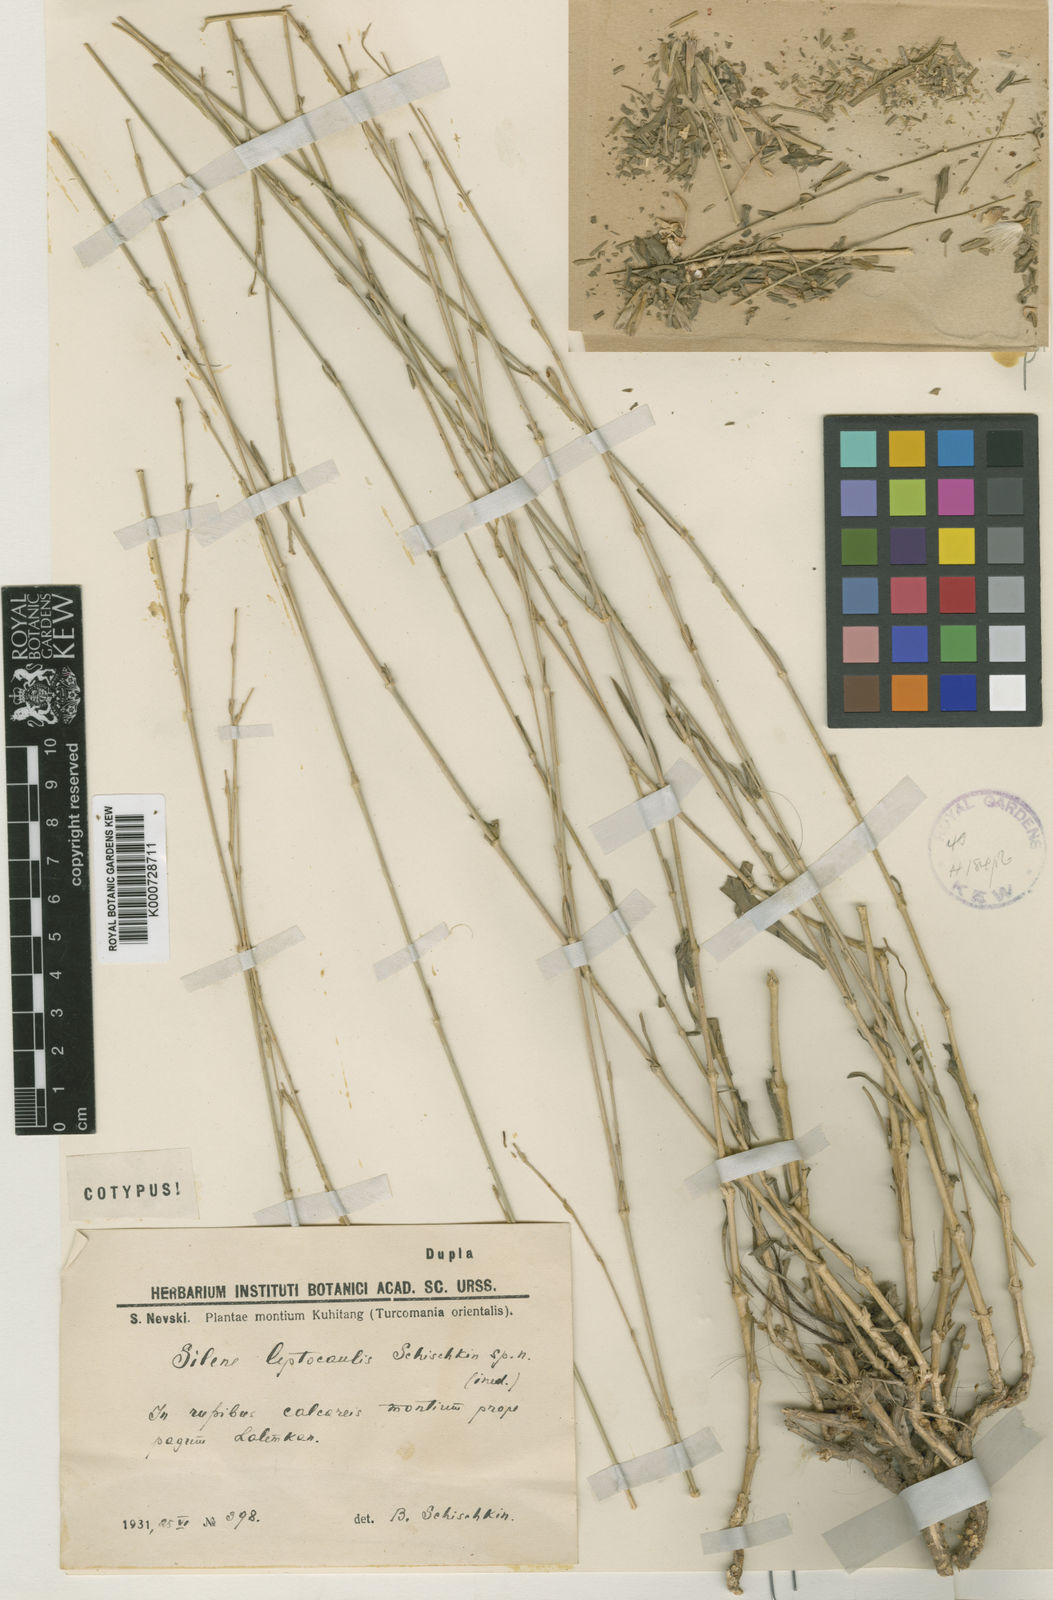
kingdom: Plantae
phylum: Tracheophyta
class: Magnoliopsida
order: Caryophyllales
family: Caryophyllaceae
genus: Silene
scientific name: Silene plurifolia
